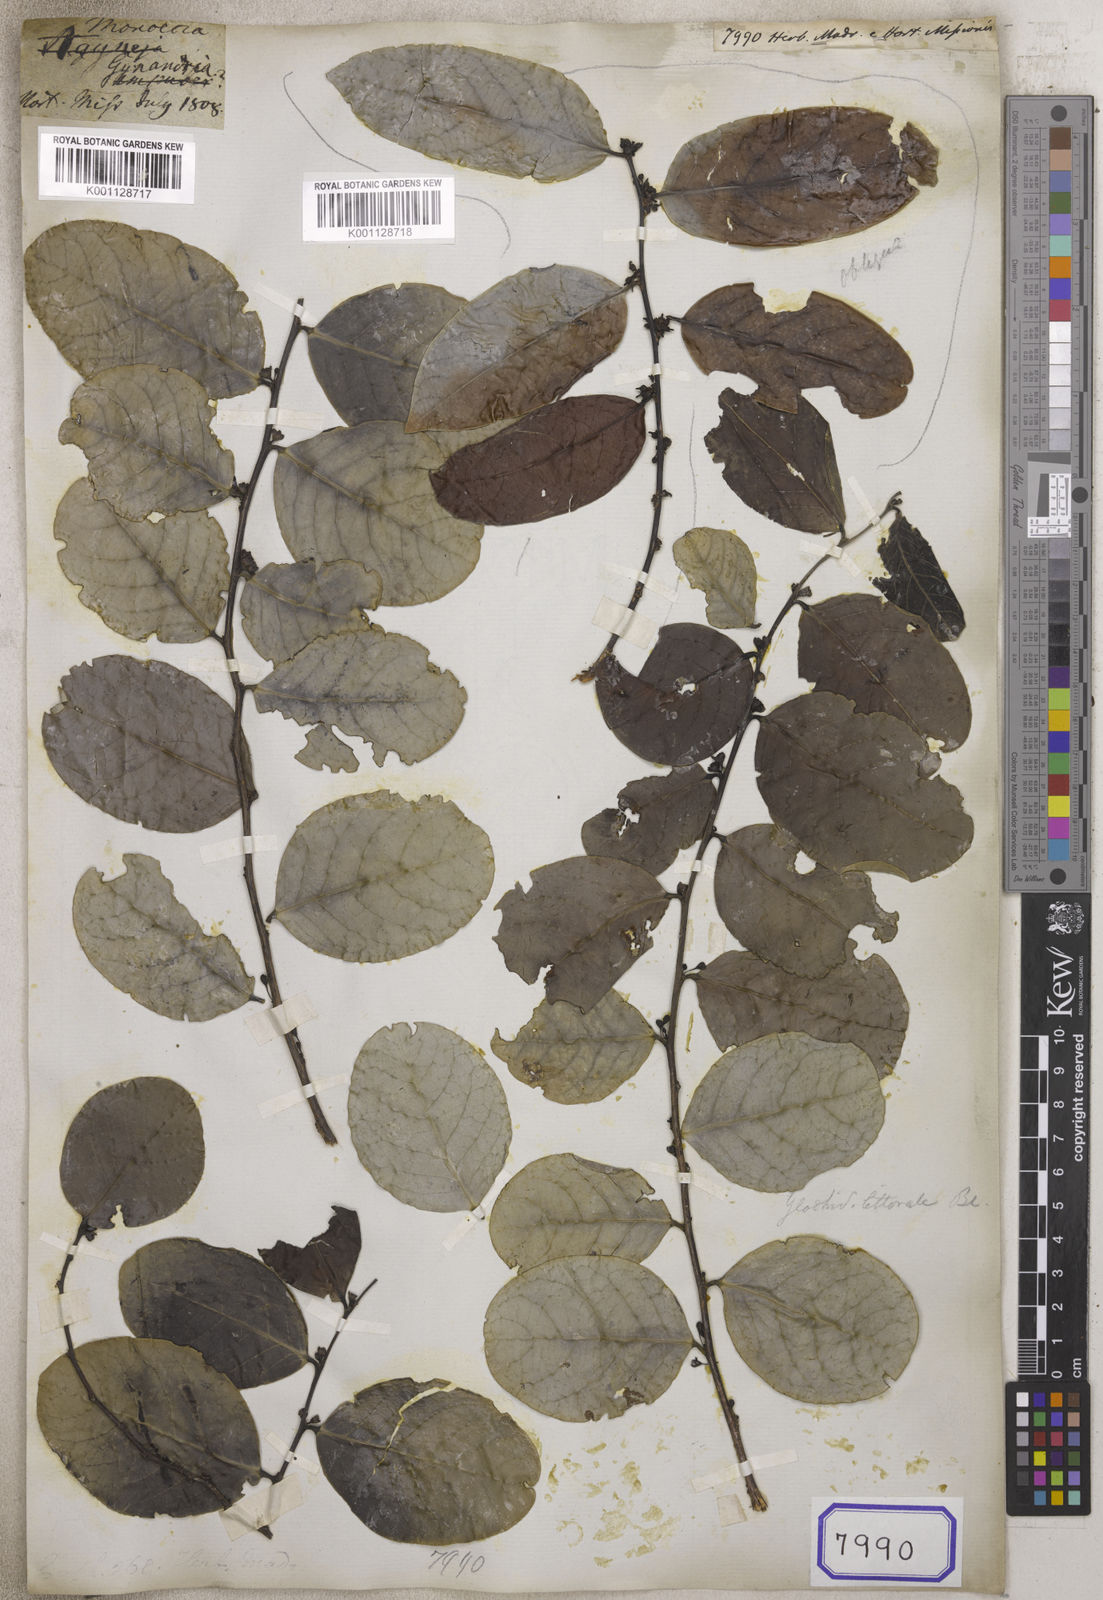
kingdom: Plantae
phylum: Tracheophyta
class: Magnoliopsida
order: Malpighiales
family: Euphorbiaceae
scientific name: Euphorbiaceae
